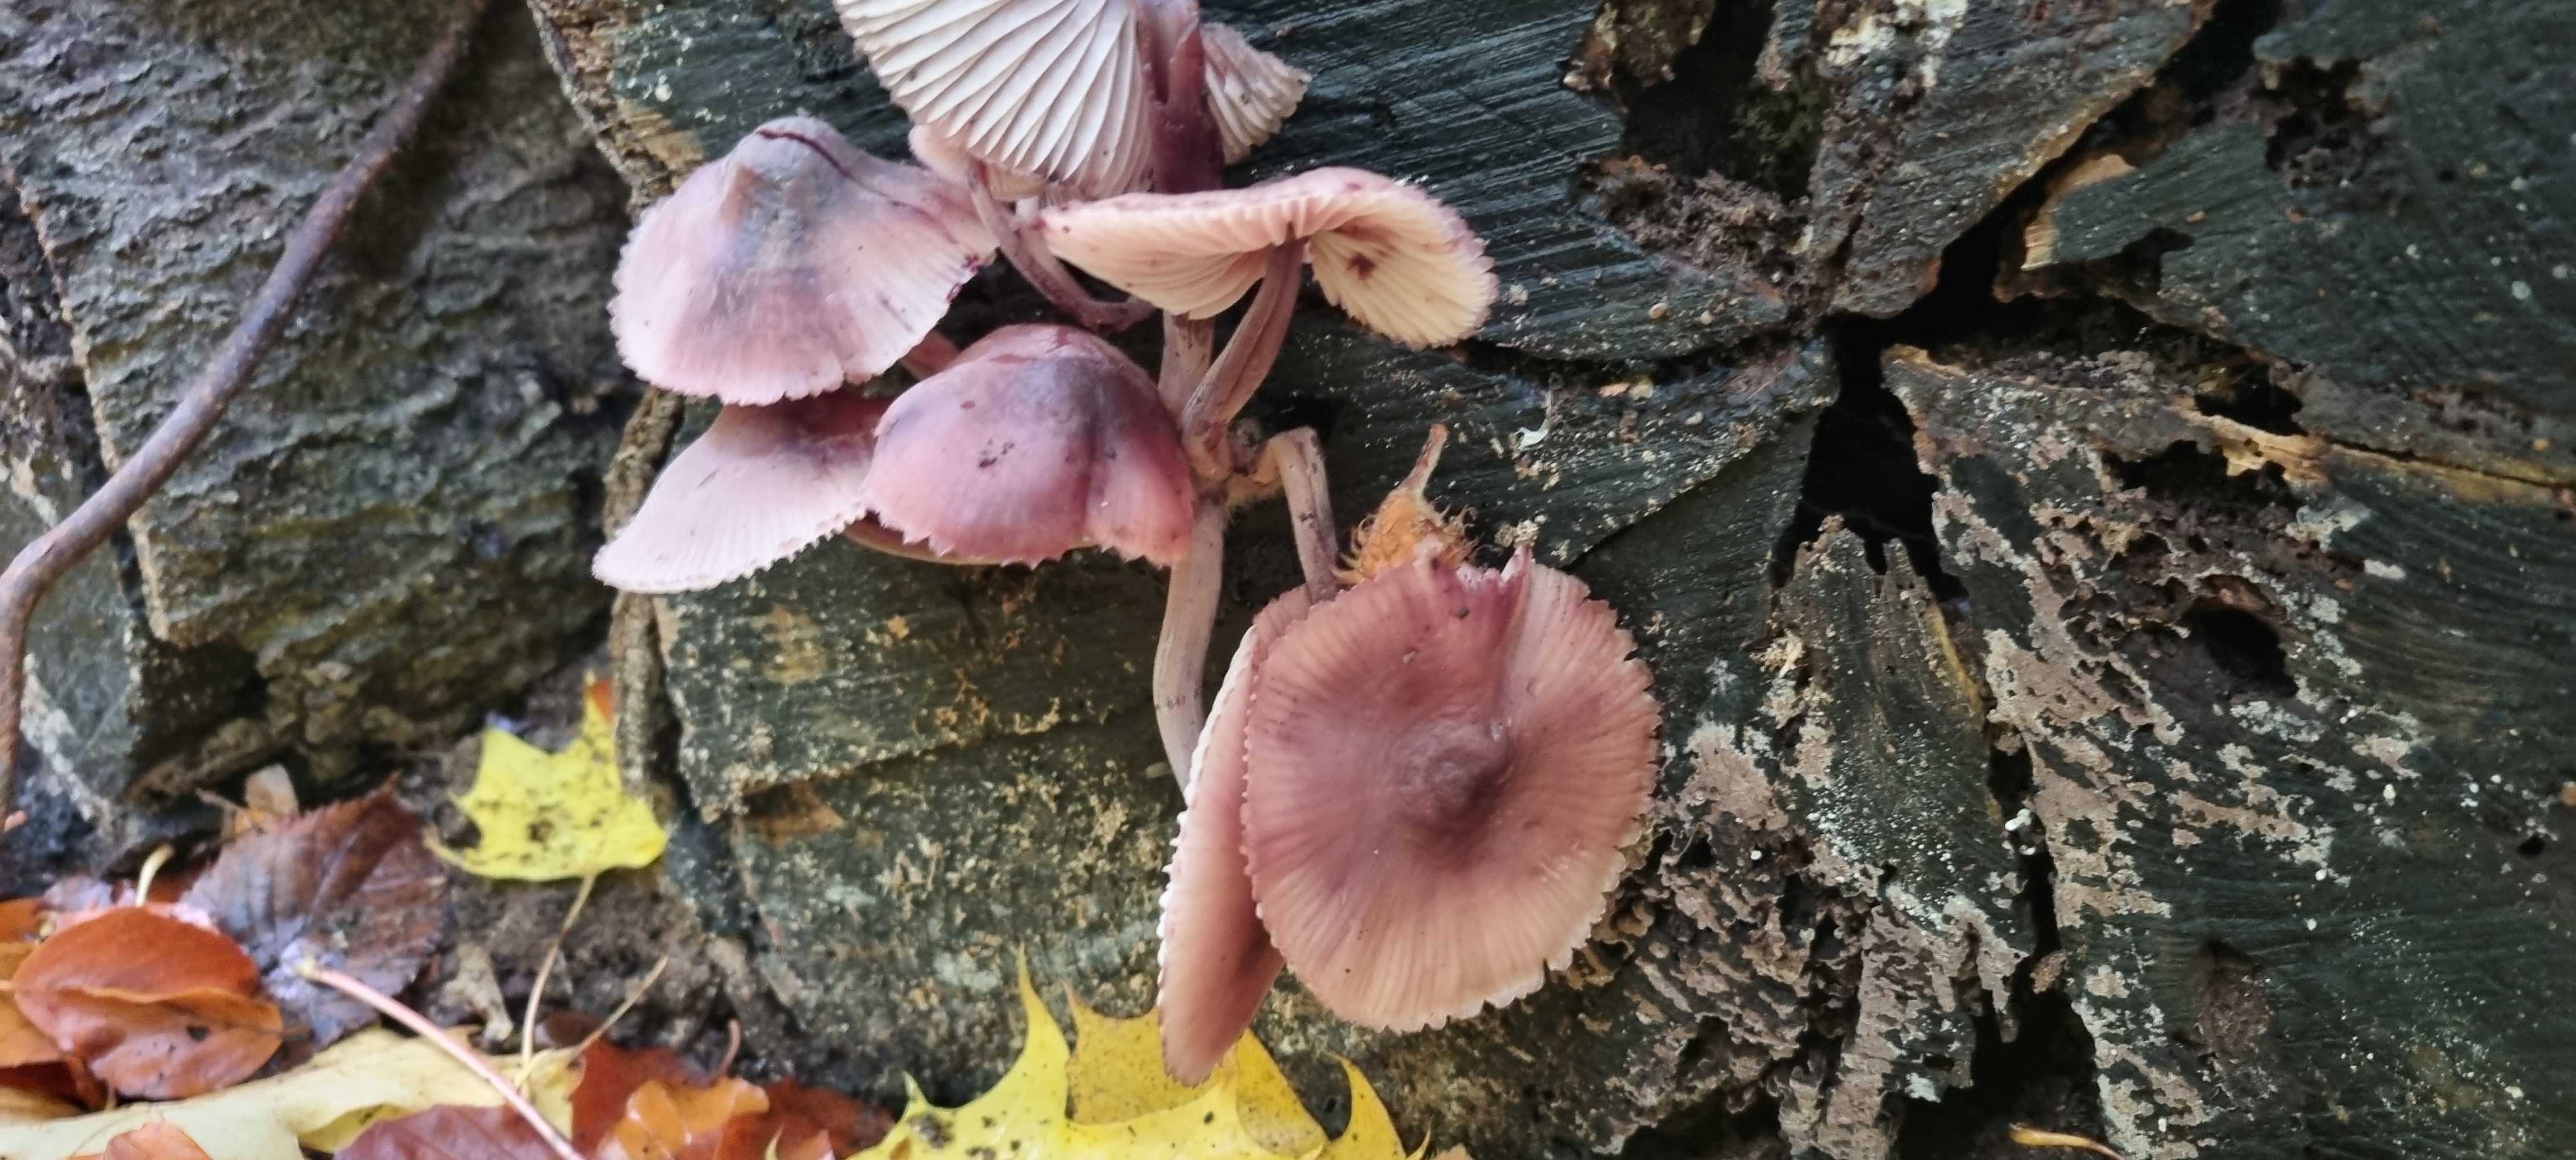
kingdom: Fungi
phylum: Basidiomycota
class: Agaricomycetes
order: Agaricales
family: Mycenaceae
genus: Mycena
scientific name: Mycena haematopus
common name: blødende huesvamp
